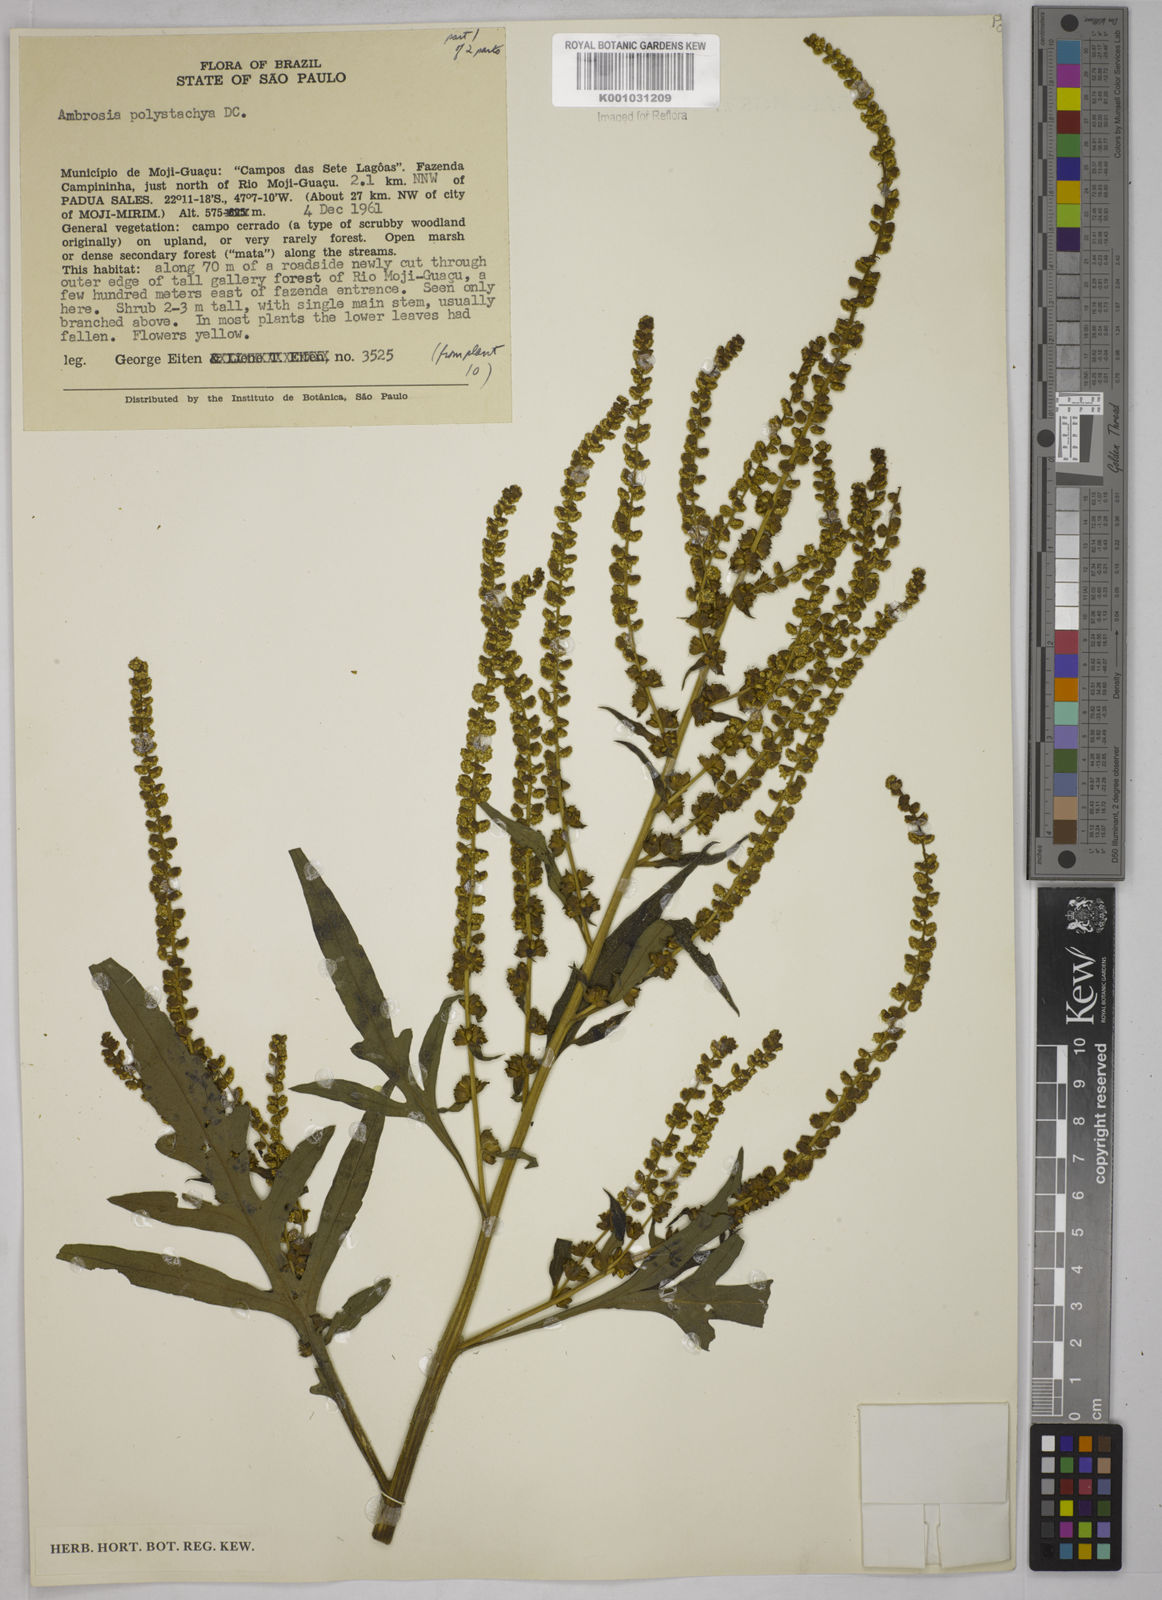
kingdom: Plantae
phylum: Tracheophyta
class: Magnoliopsida
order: Asterales
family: Asteraceae
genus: Ambrosia
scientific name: Ambrosia polystachya
